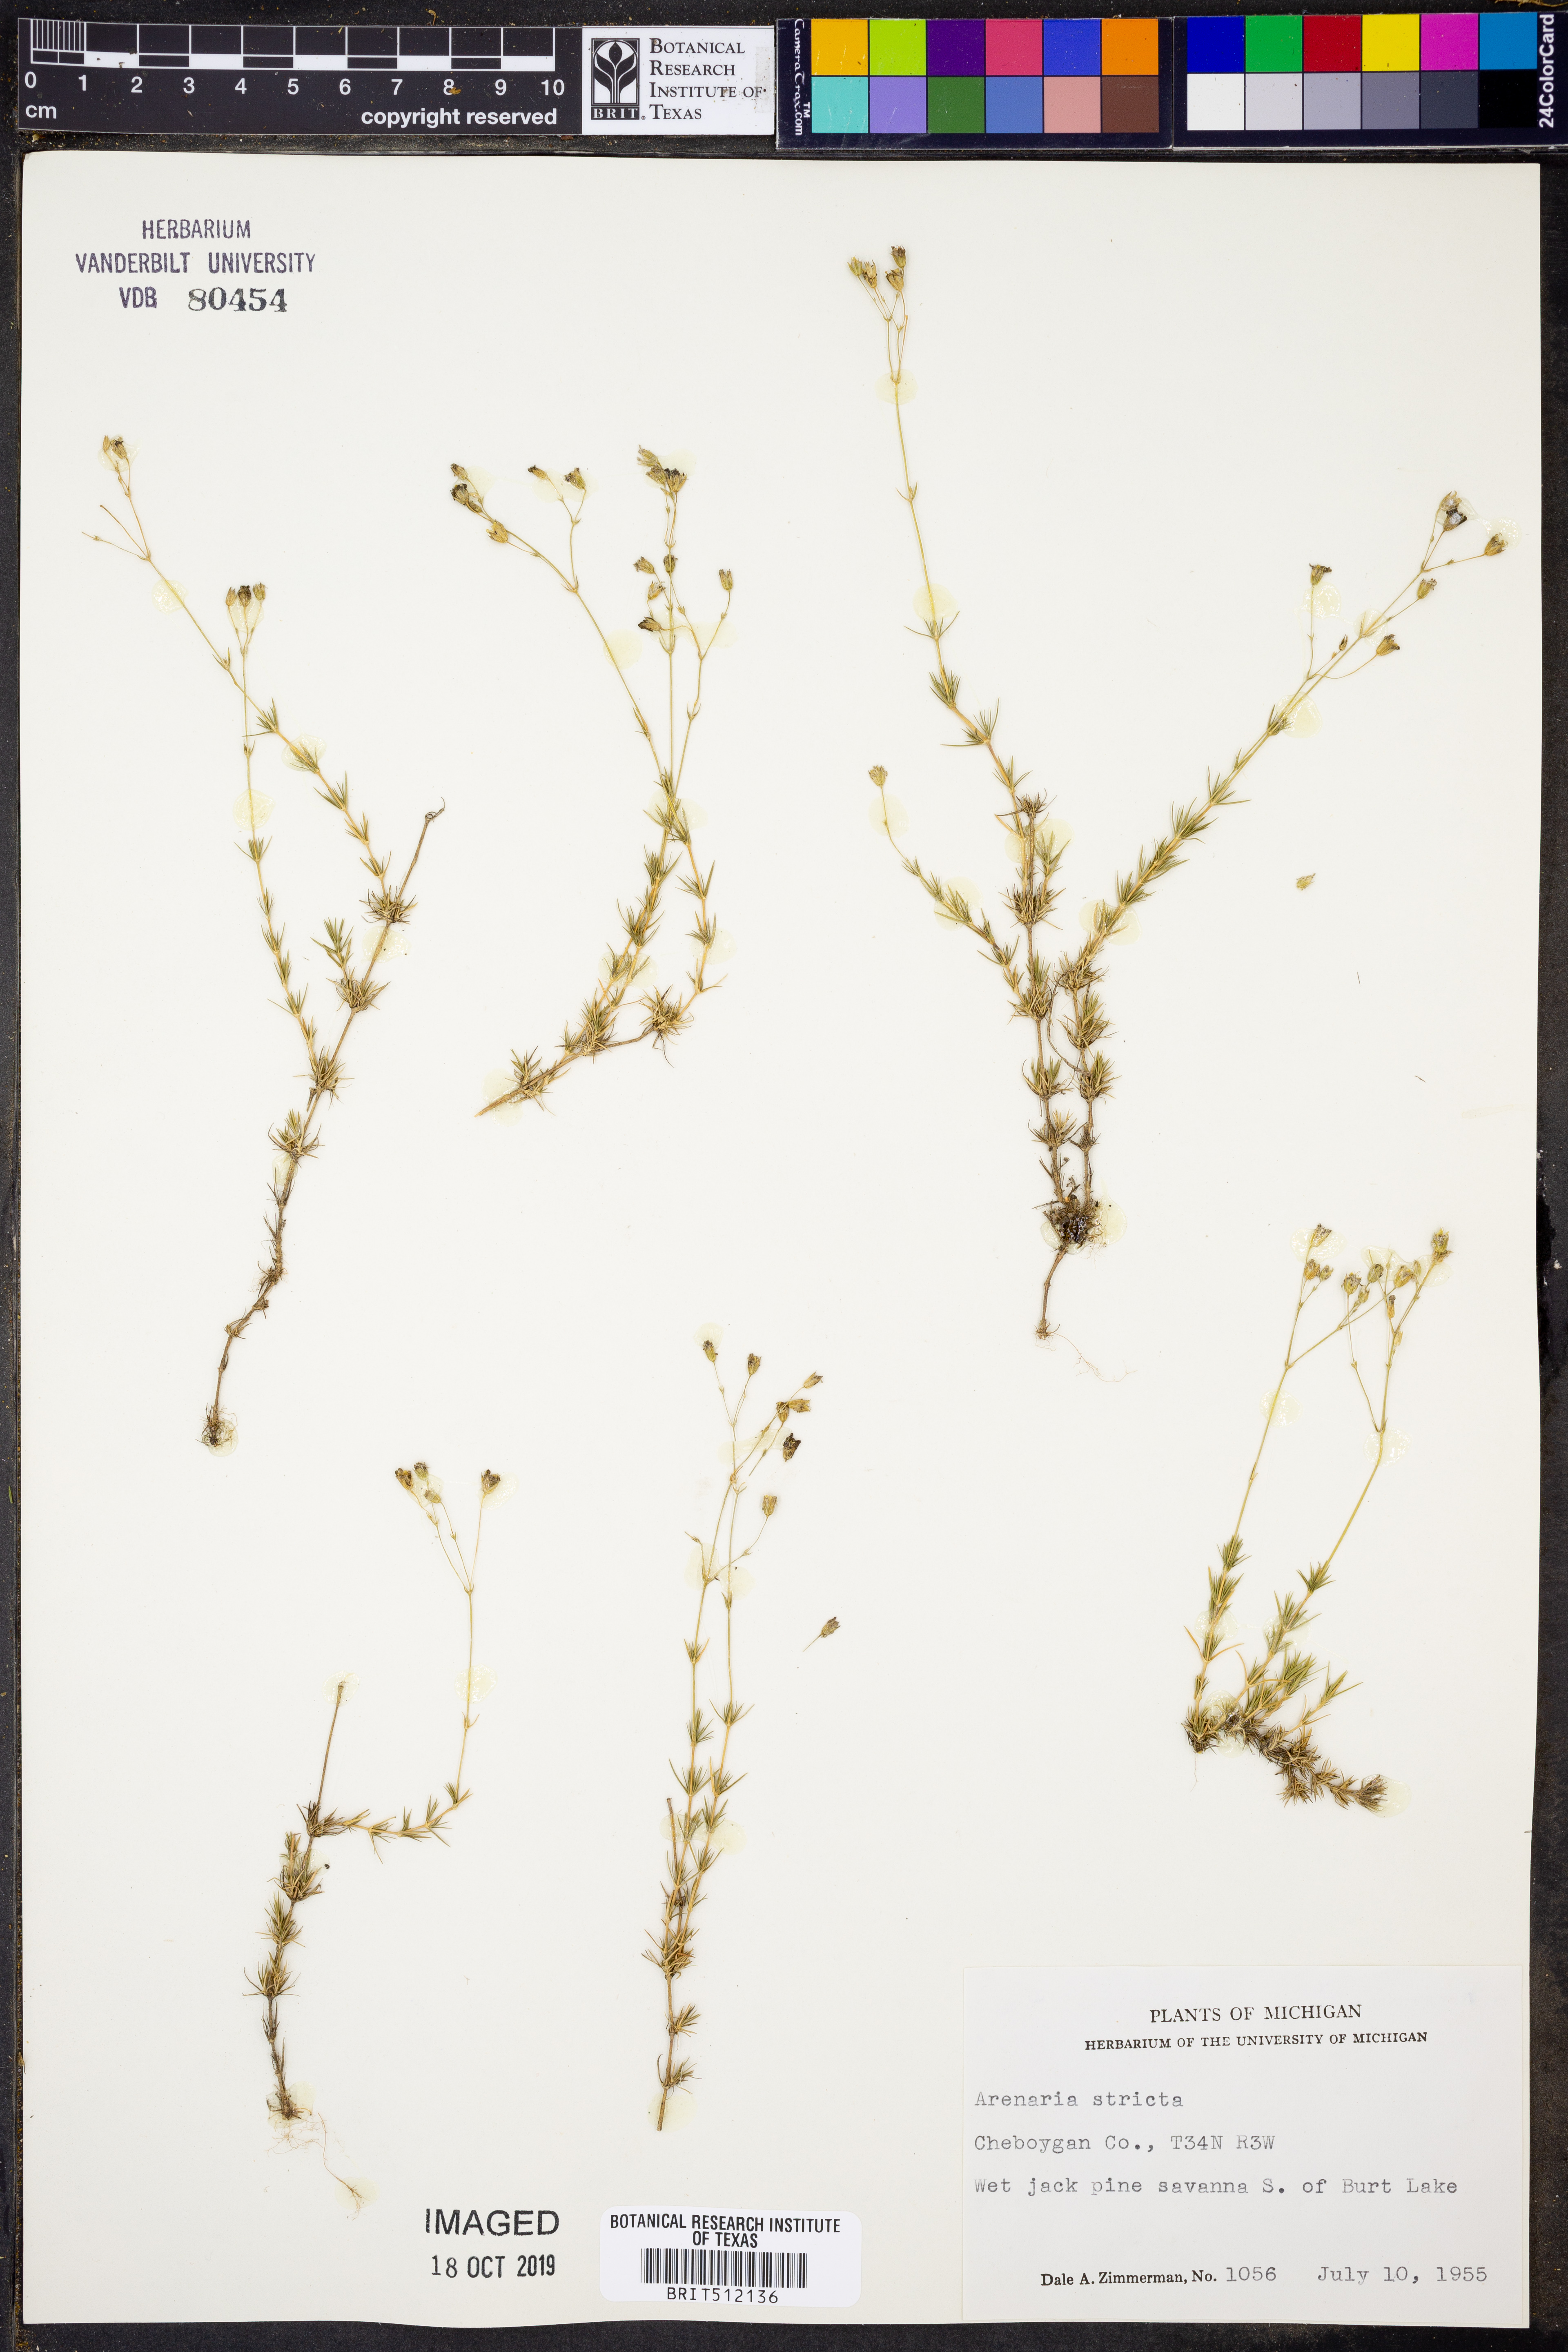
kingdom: Plantae
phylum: Tracheophyta
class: Magnoliopsida
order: Caryophyllales
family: Caryophyllaceae
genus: Sabulina
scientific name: Sabulina michauxii
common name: Michaux's stitchwort
